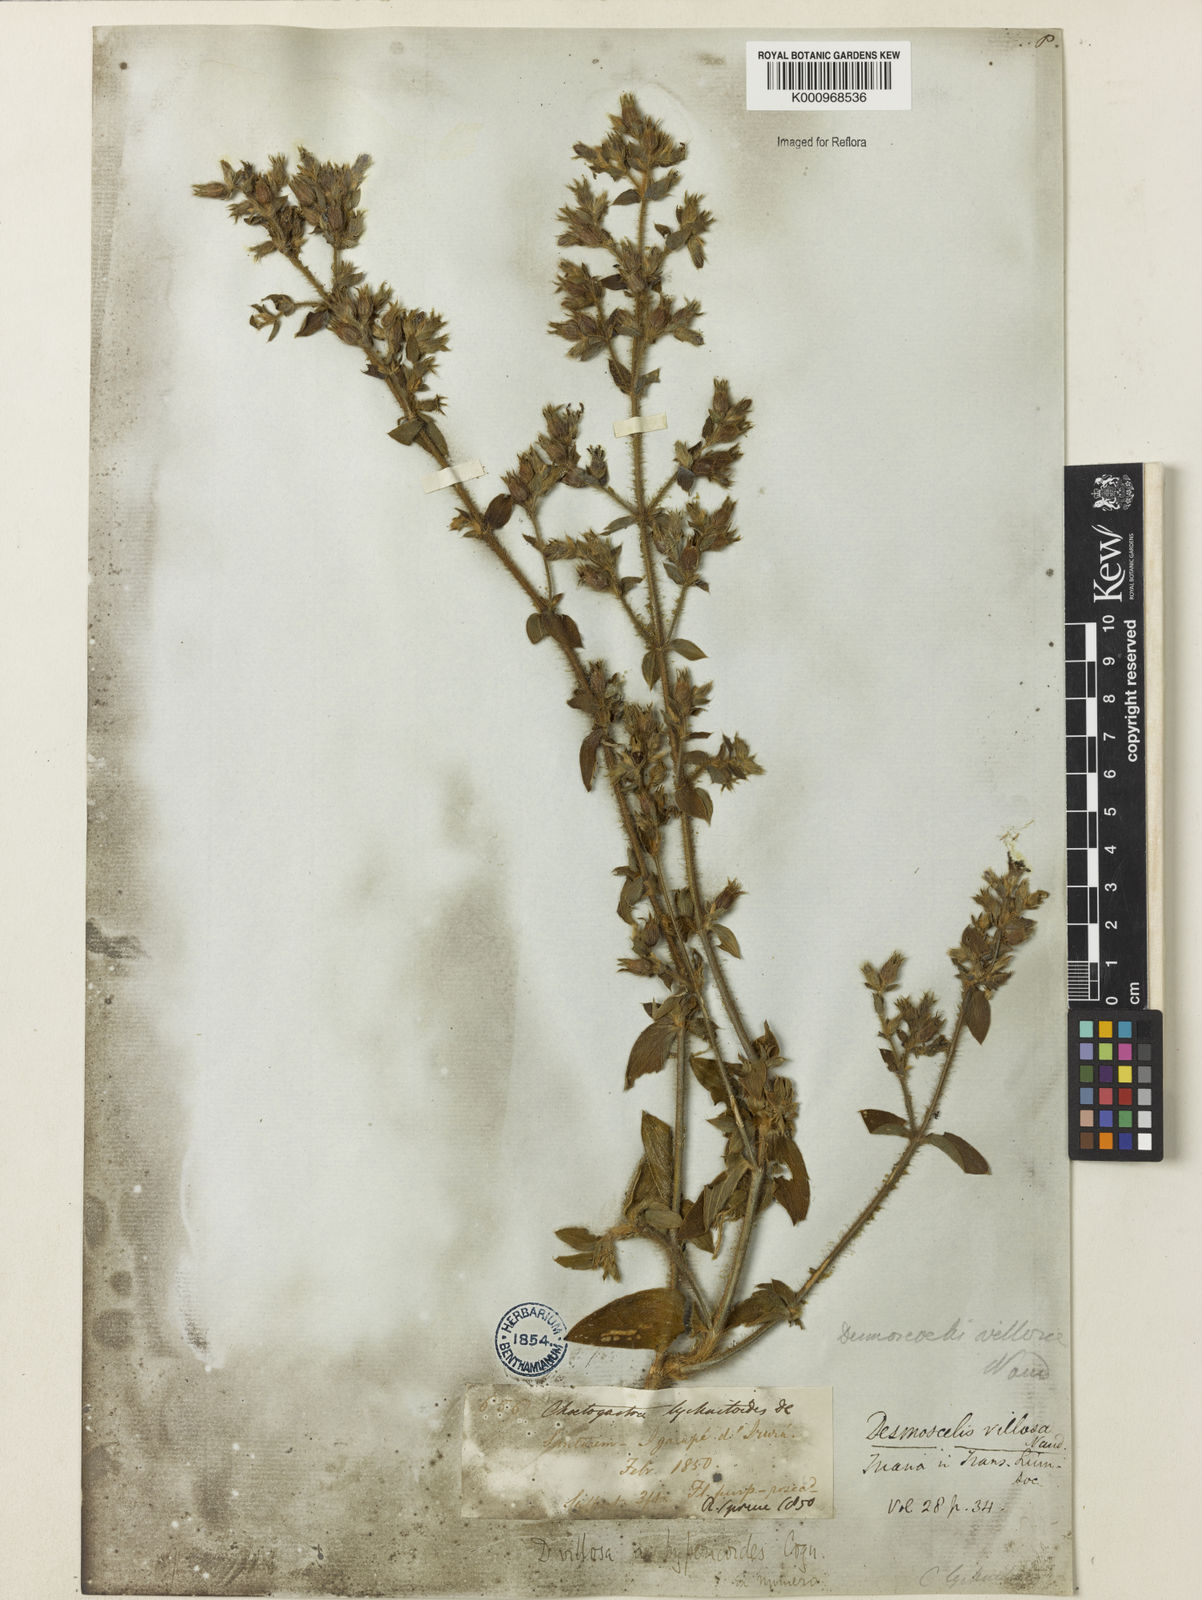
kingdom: Plantae
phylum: Tracheophyta
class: Magnoliopsida
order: Myrtales
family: Melastomataceae
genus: Desmoscelis
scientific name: Desmoscelis villosa
